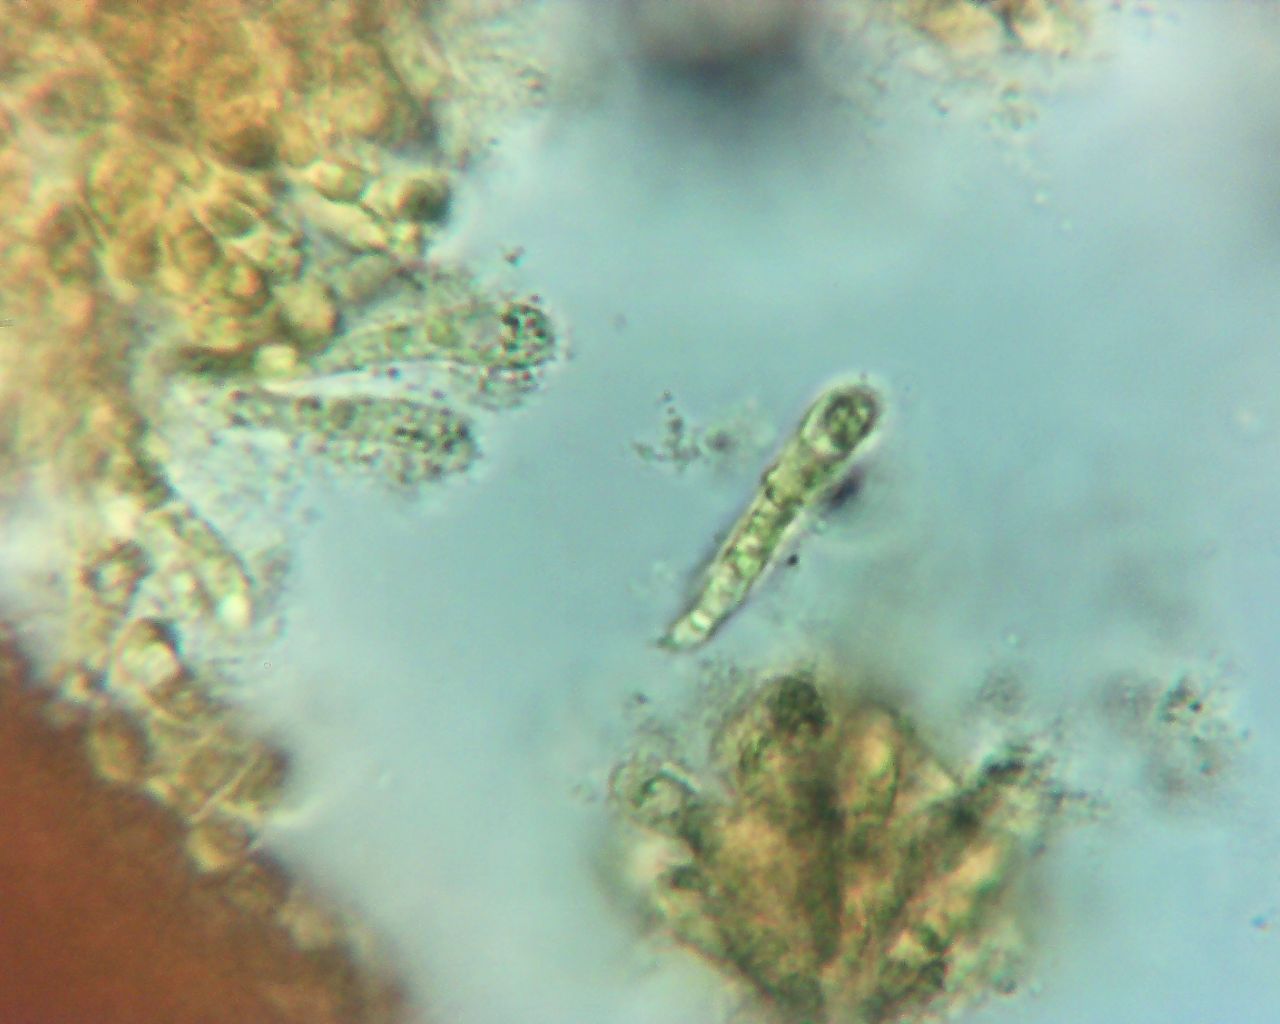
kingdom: Fungi
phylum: Basidiomycota
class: Agaricomycetes
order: Agaricales
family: Mycenaceae
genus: Mycena
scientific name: Mycena
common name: huesvamp
